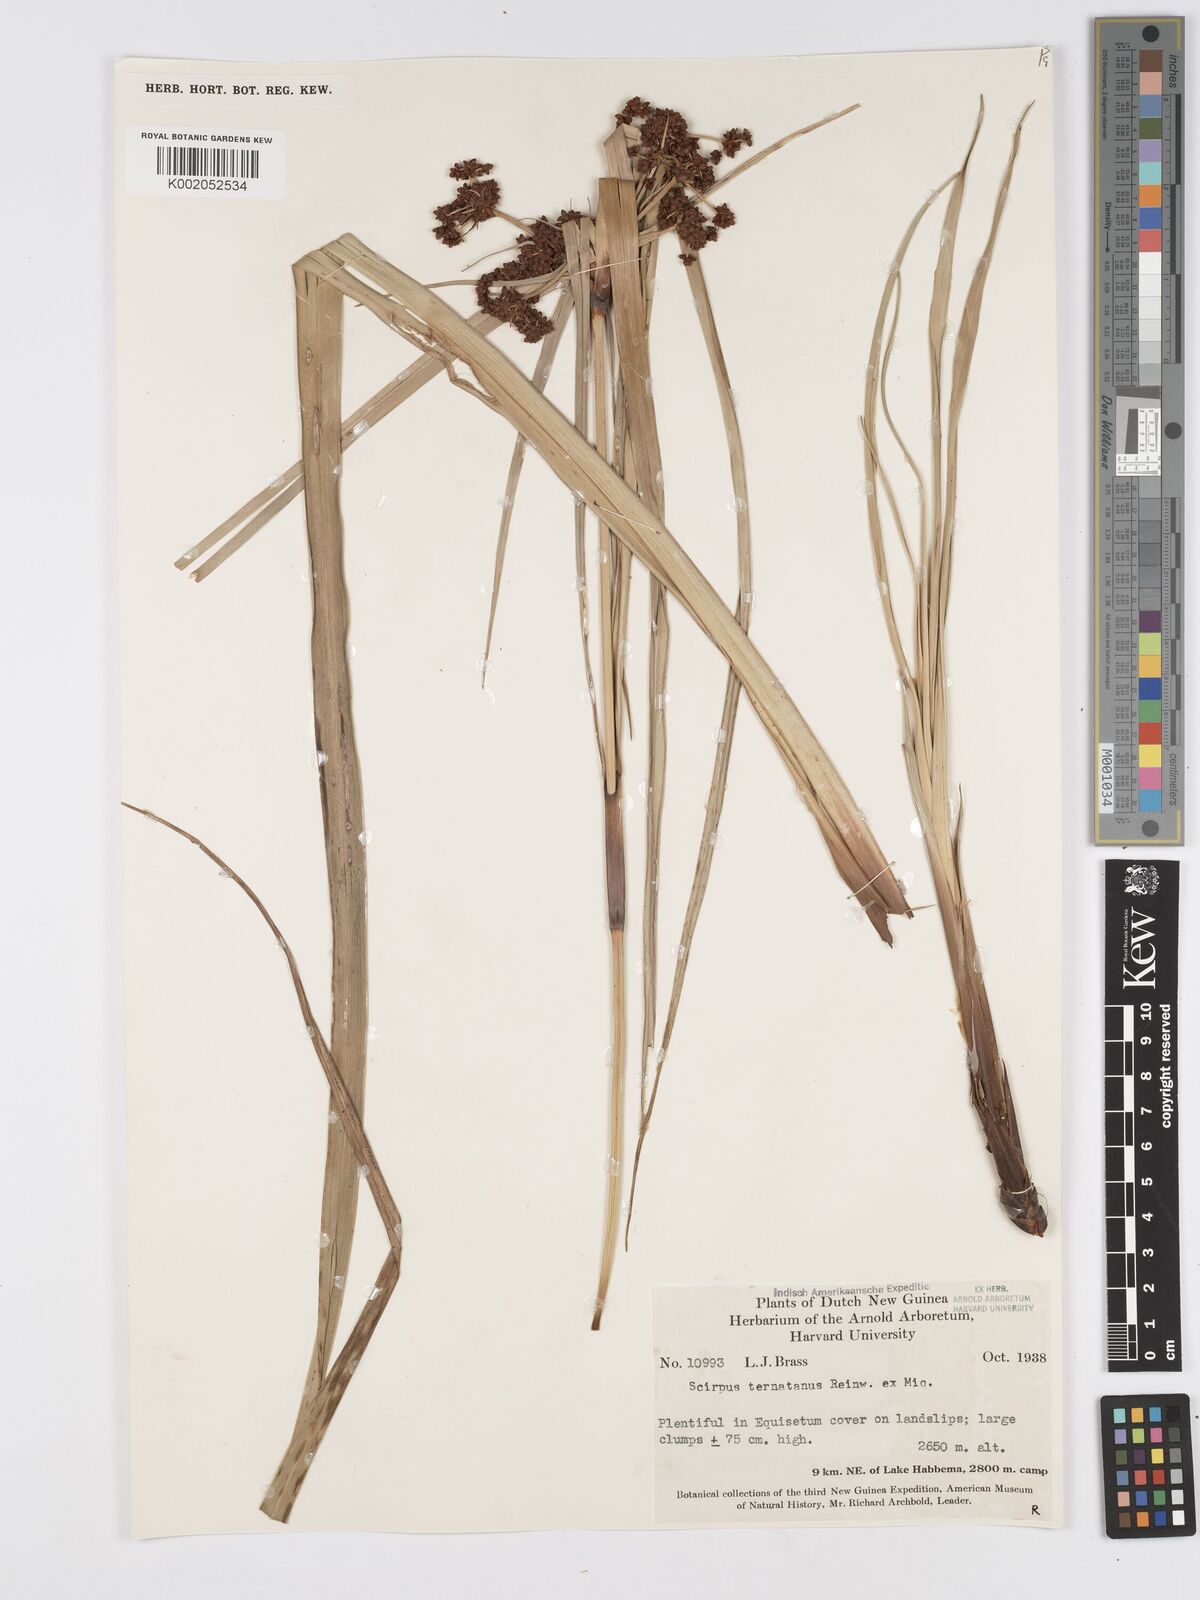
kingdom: Plantae
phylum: Tracheophyta
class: Liliopsida
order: Poales
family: Cyperaceae
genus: Scirpus
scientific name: Scirpus ternatanus
